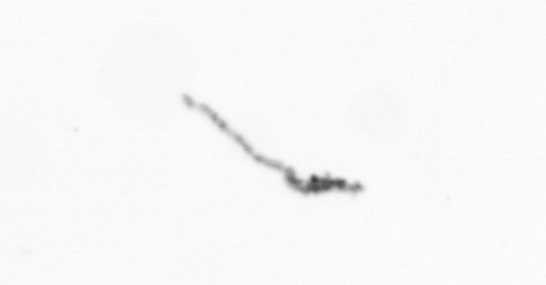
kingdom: Chromista
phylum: Ochrophyta
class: Bacillariophyceae
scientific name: Bacillariophyceae
